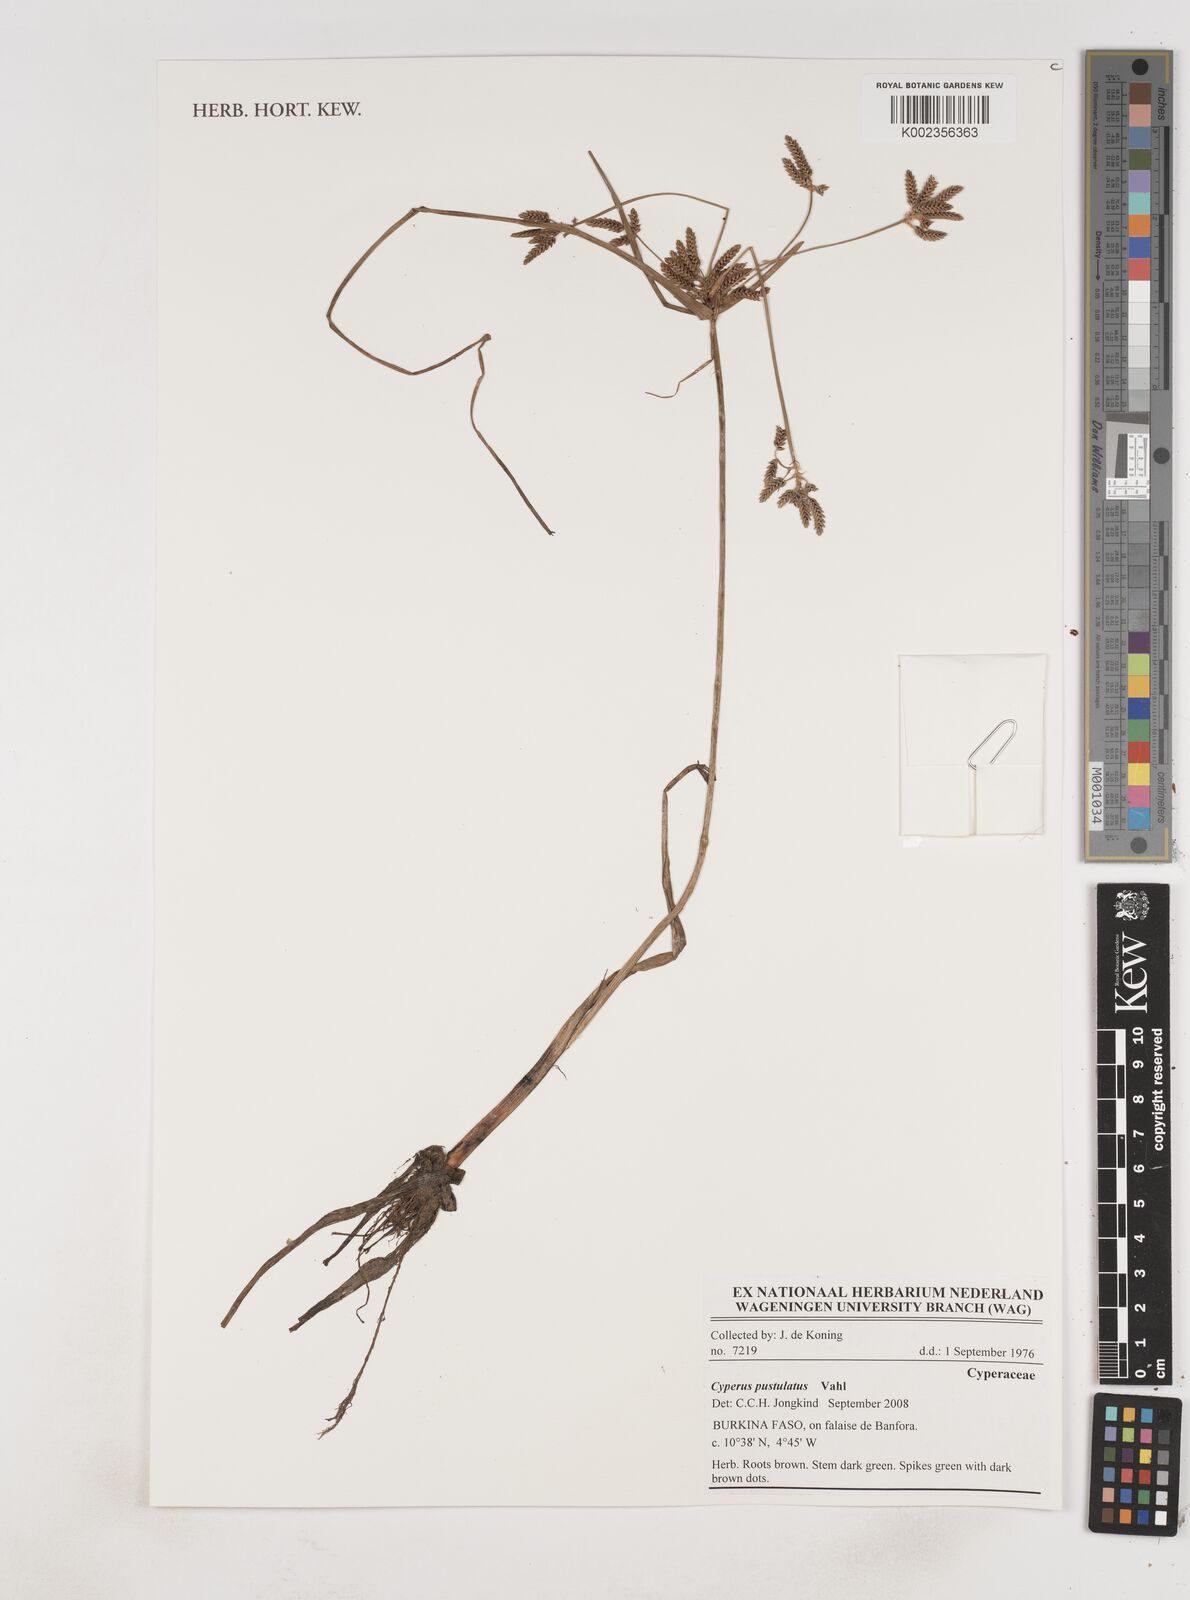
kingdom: Plantae
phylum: Tracheophyta
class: Liliopsida
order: Poales
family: Cyperaceae
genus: Cyperus
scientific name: Cyperus pustulatus
